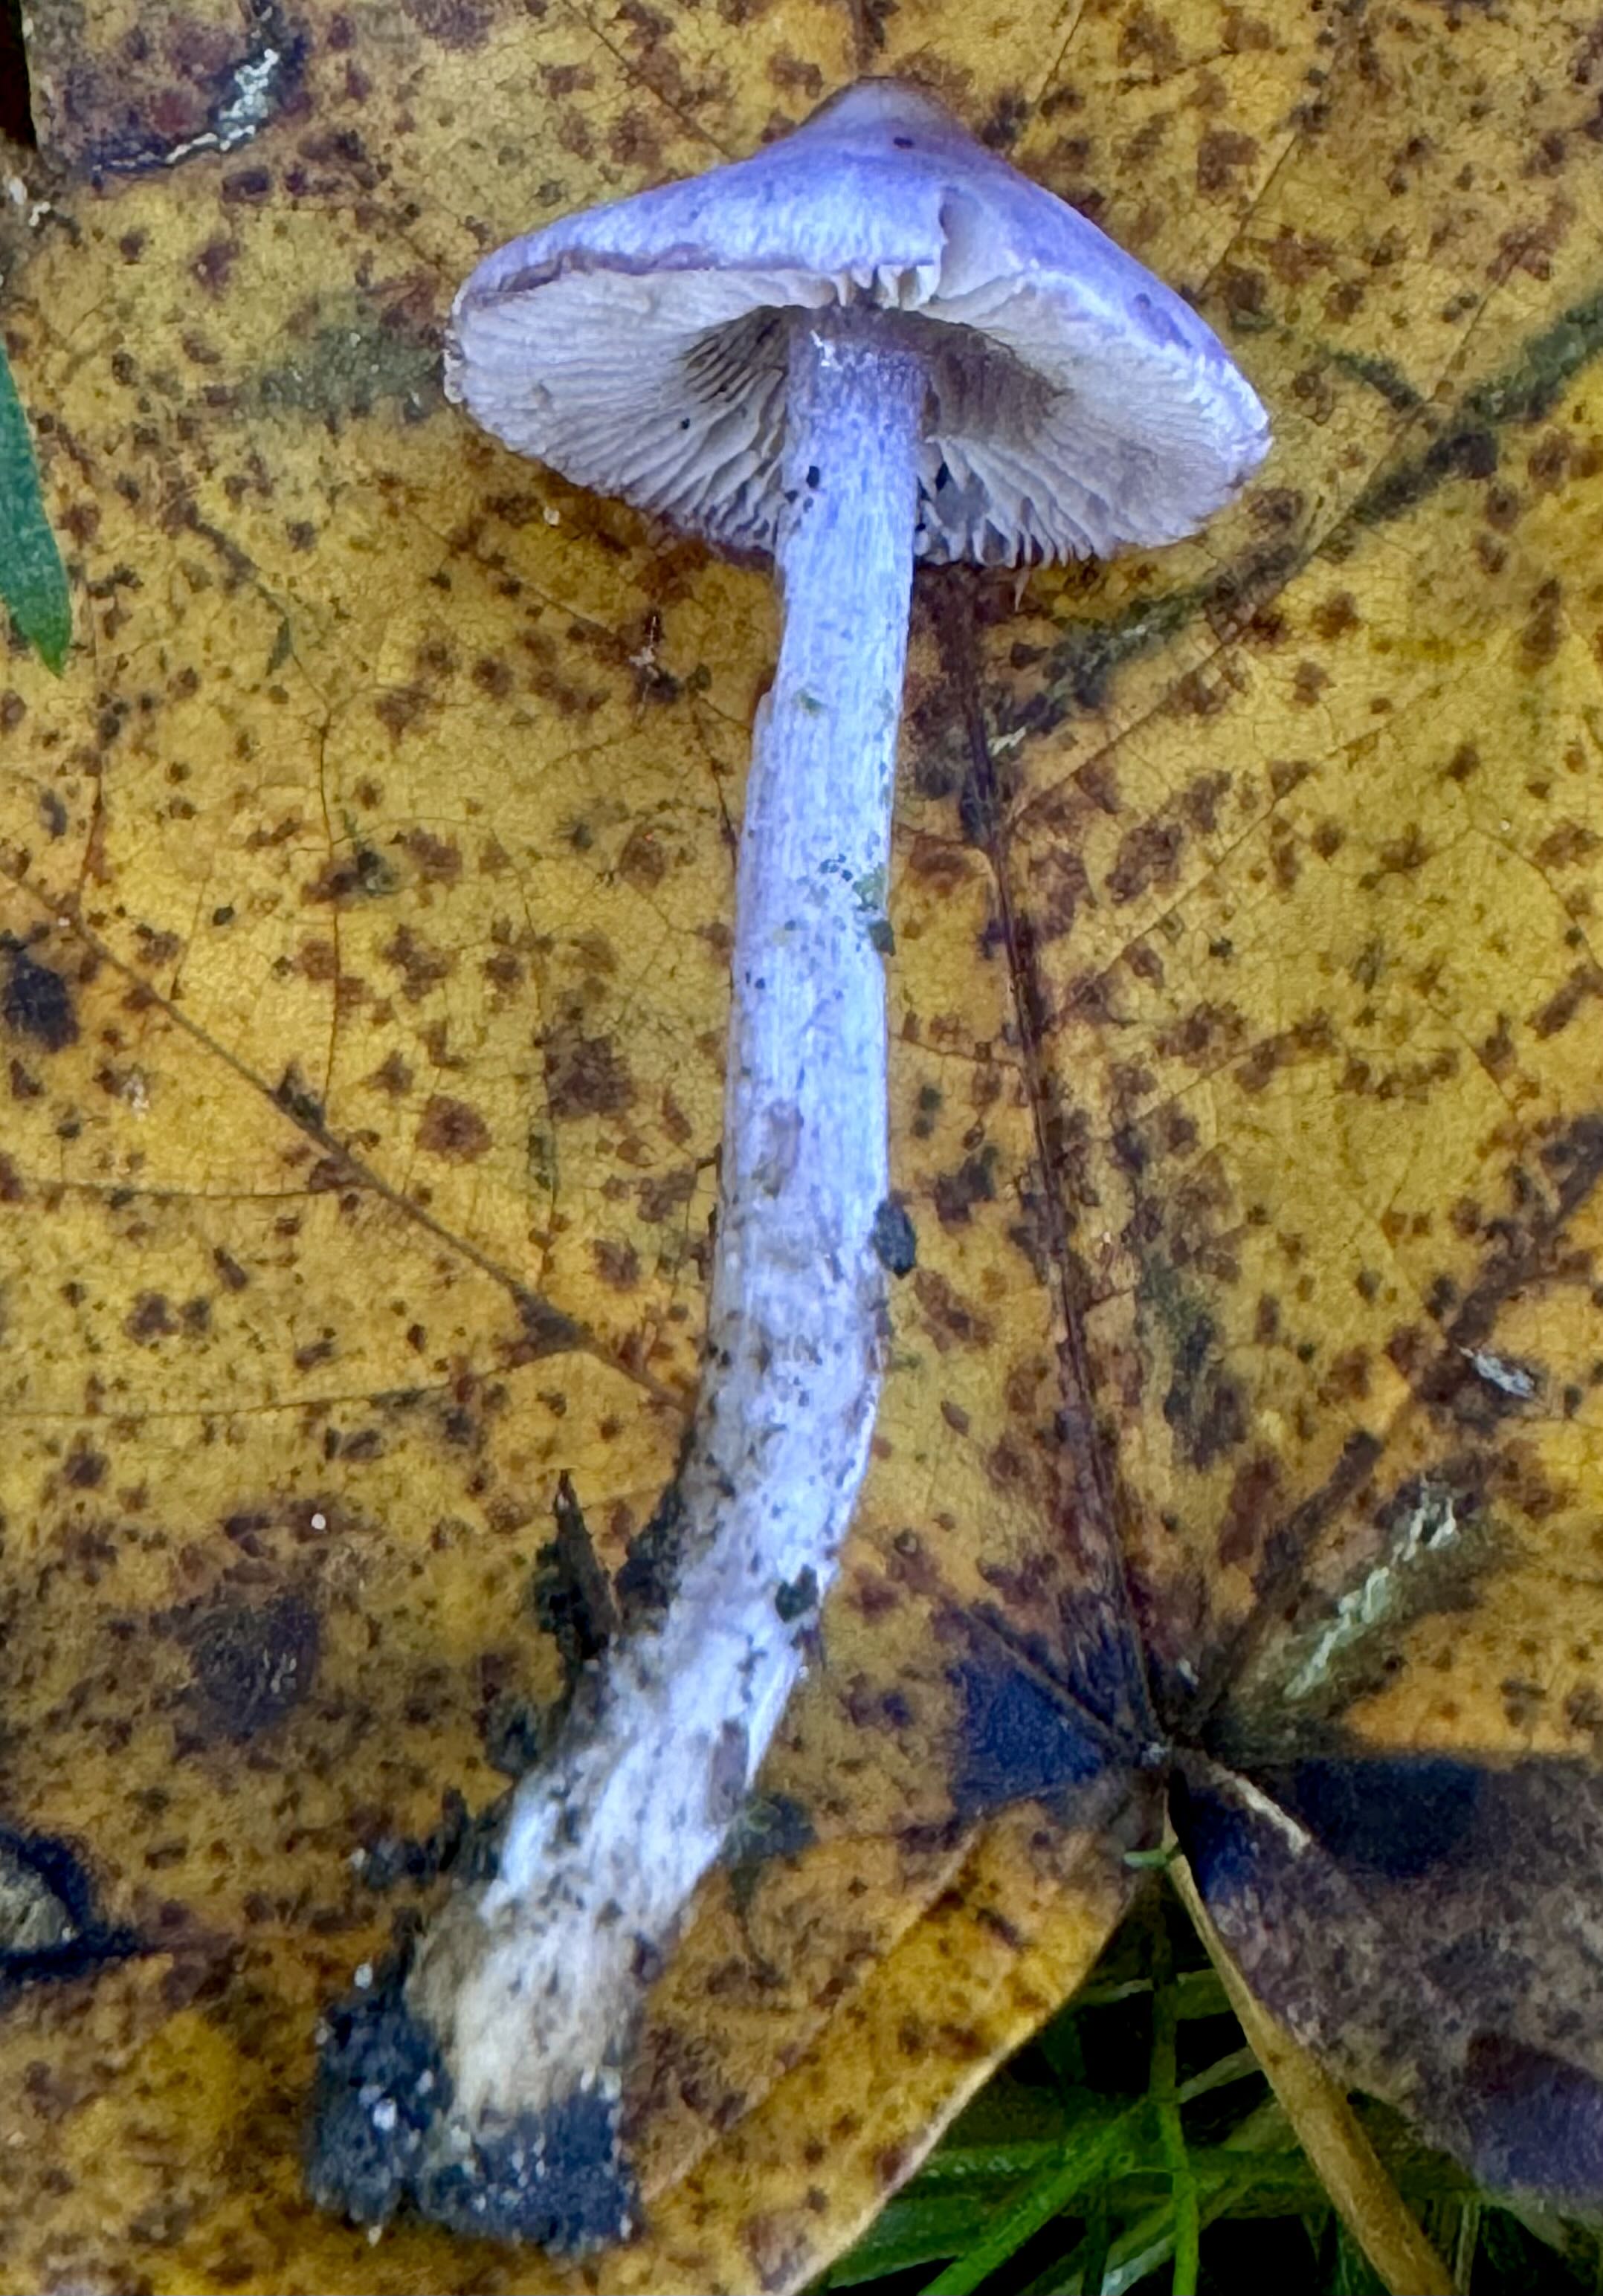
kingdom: Fungi
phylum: Basidiomycota
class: Agaricomycetes
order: Agaricales
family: Inocybaceae
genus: Inocybe
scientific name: Inocybe geophylla
